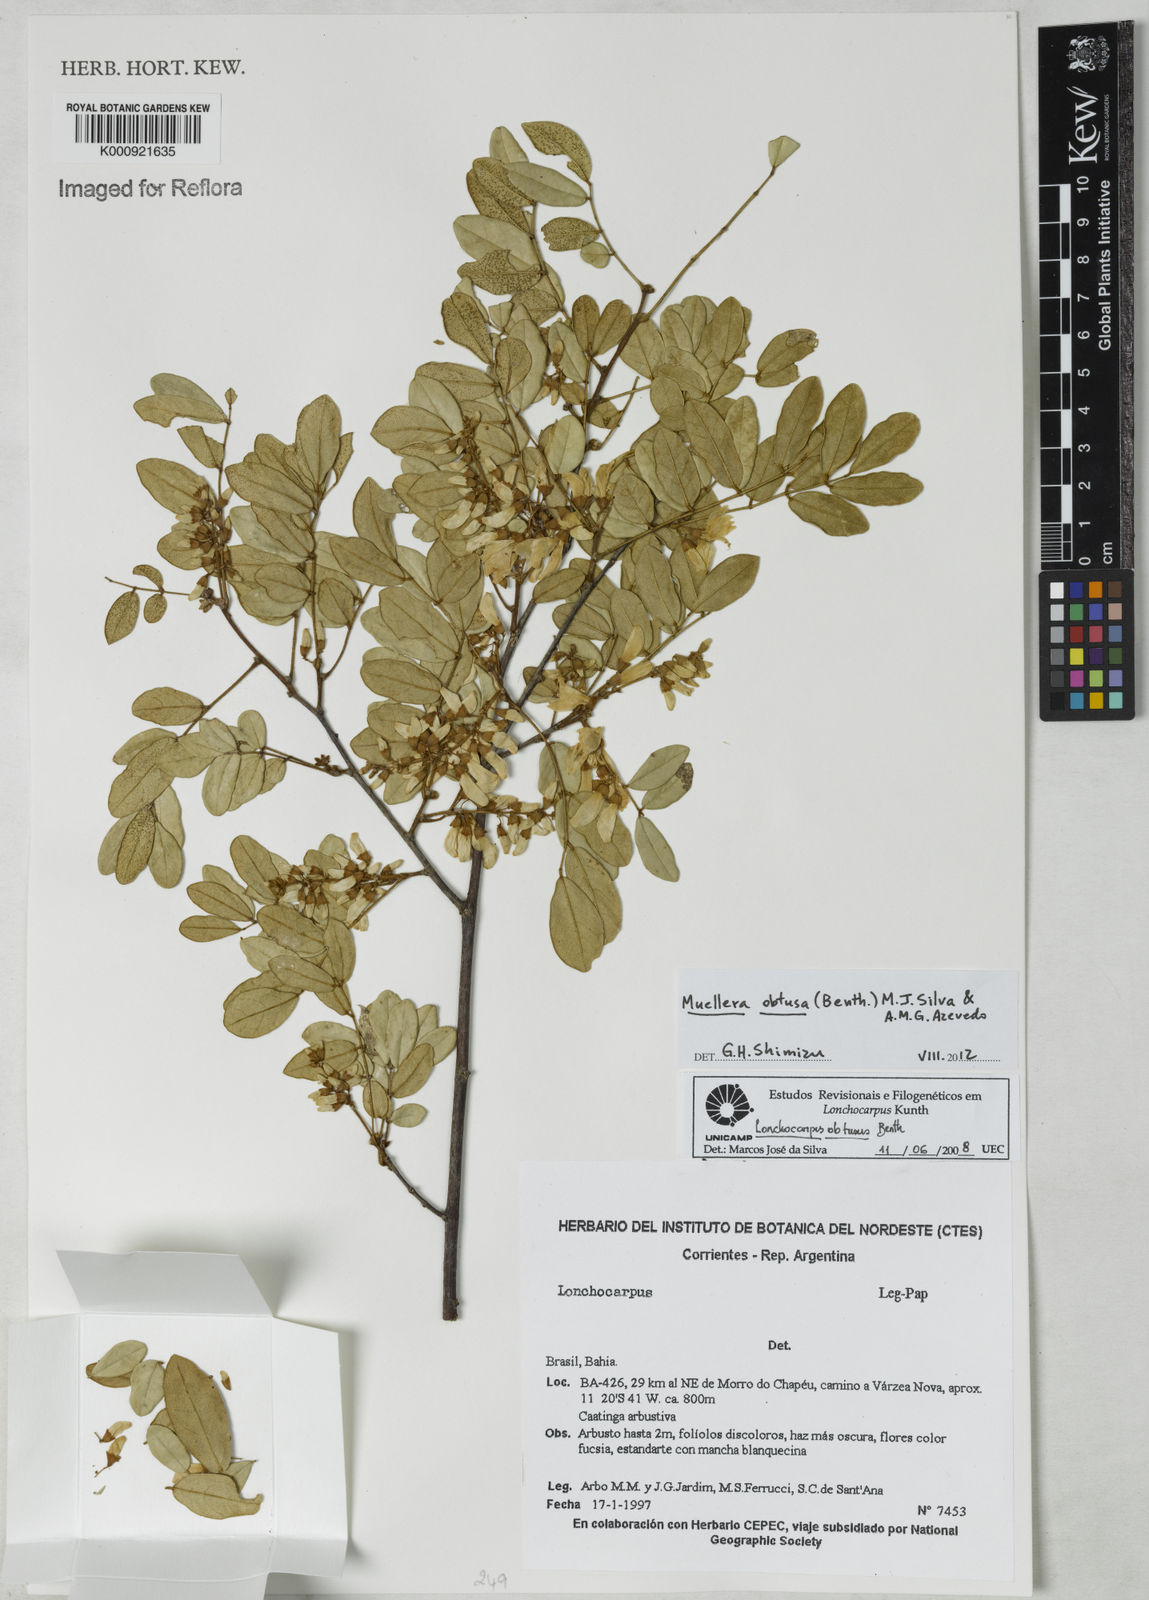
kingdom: Plantae
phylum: Tracheophyta
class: Magnoliopsida
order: Fabales
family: Fabaceae
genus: Muellera
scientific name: Muellera obtusa
